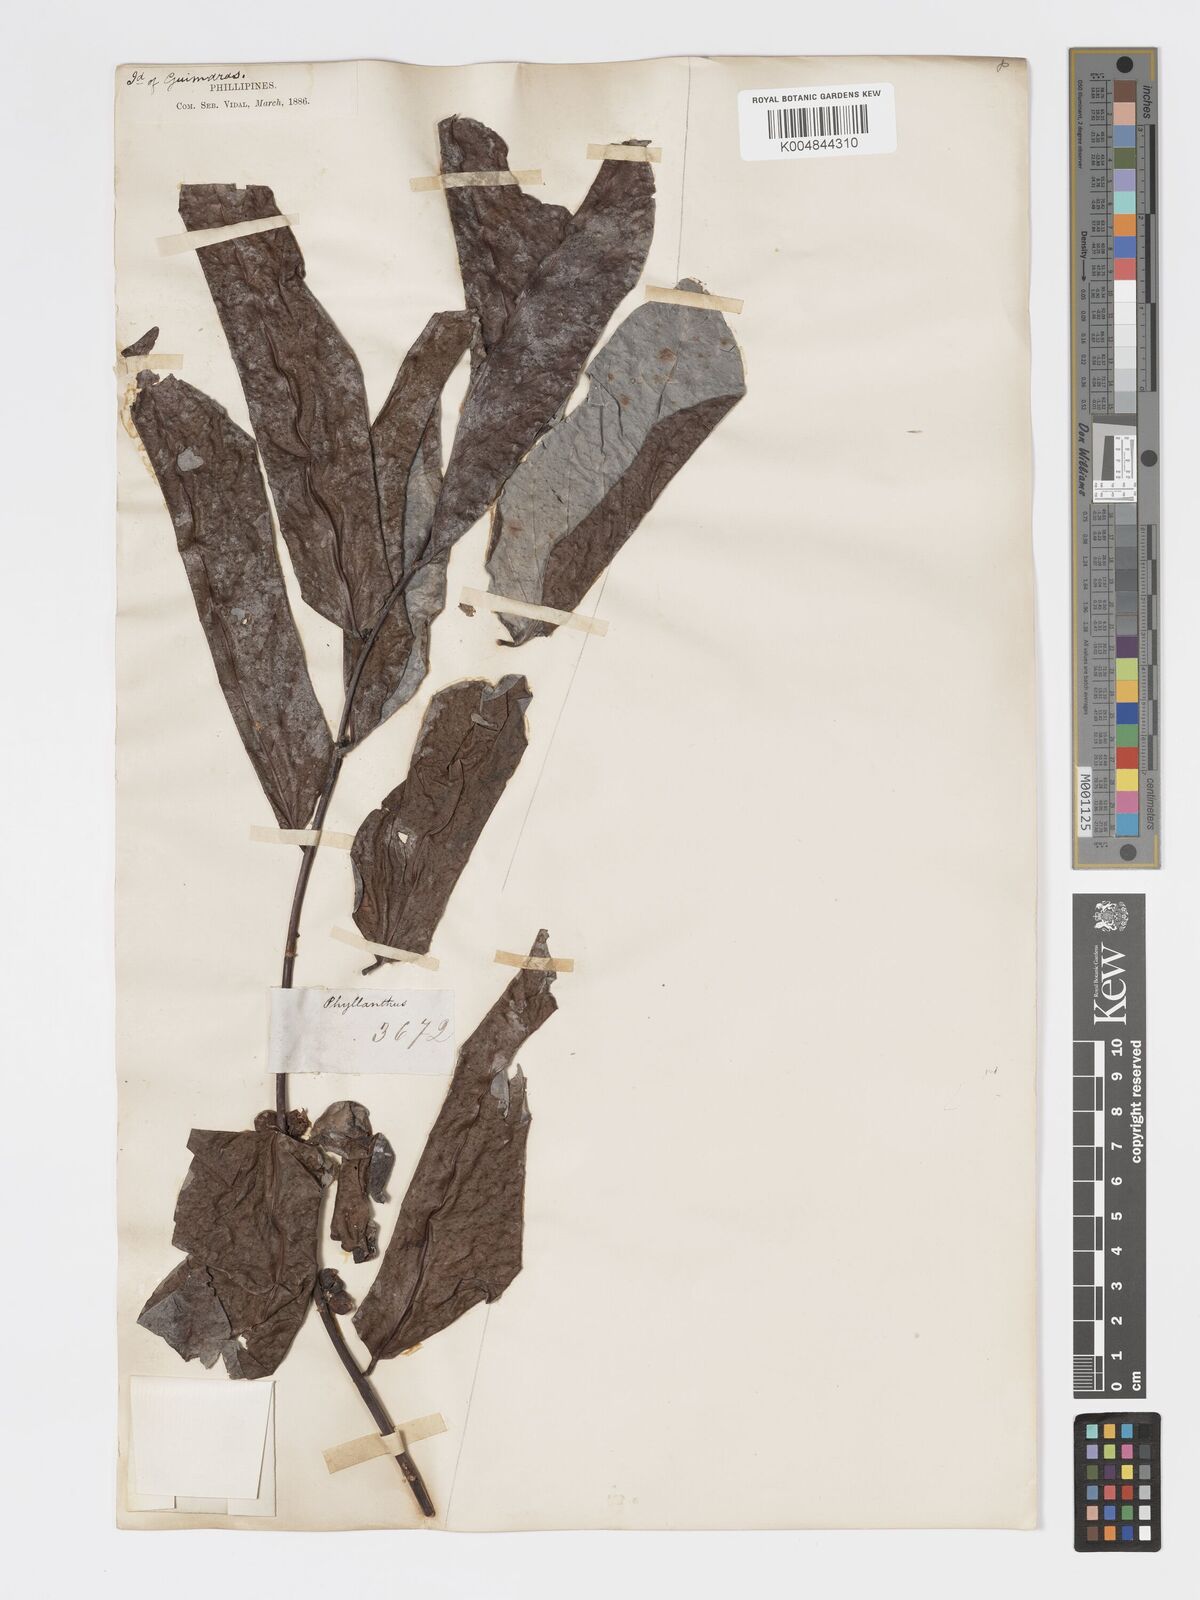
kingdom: Plantae
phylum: Tracheophyta
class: Magnoliopsida
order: Malpighiales
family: Phyllanthaceae
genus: Glochidion
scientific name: Glochidion zeylanicum
